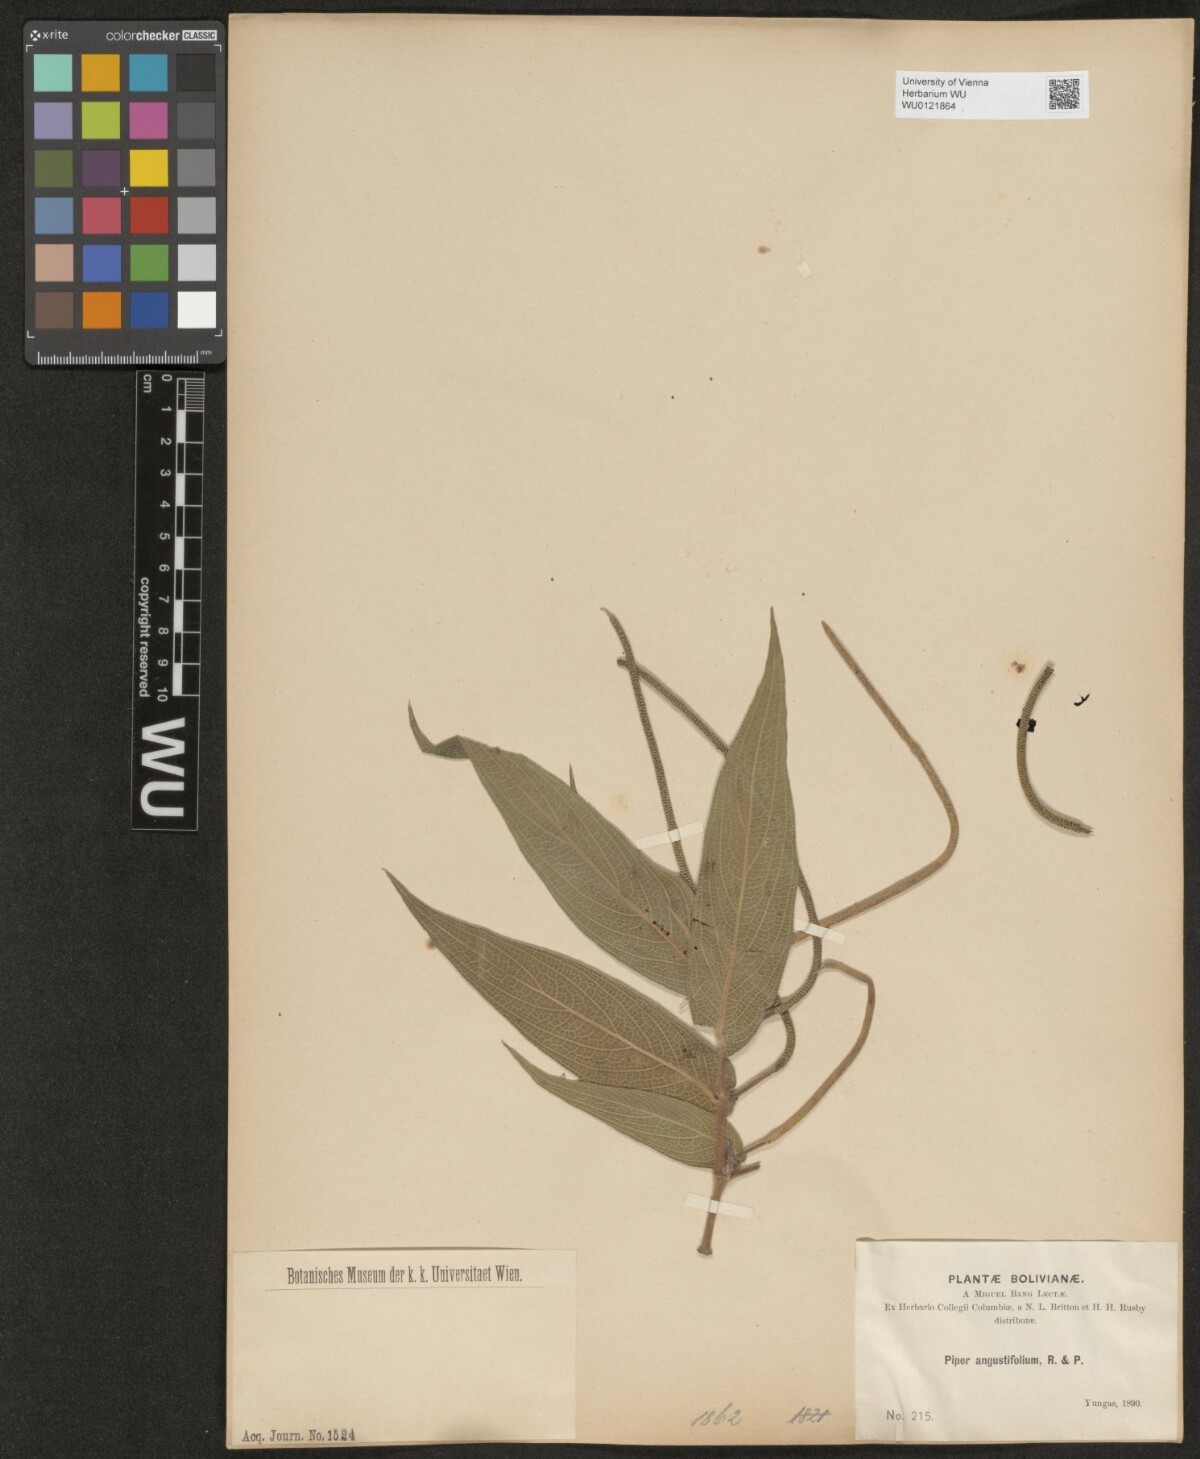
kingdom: Plantae
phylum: Tracheophyta
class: Magnoliopsida
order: Piperales
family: Piperaceae
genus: Piper
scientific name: Piper aduncum
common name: Spiked pepper
